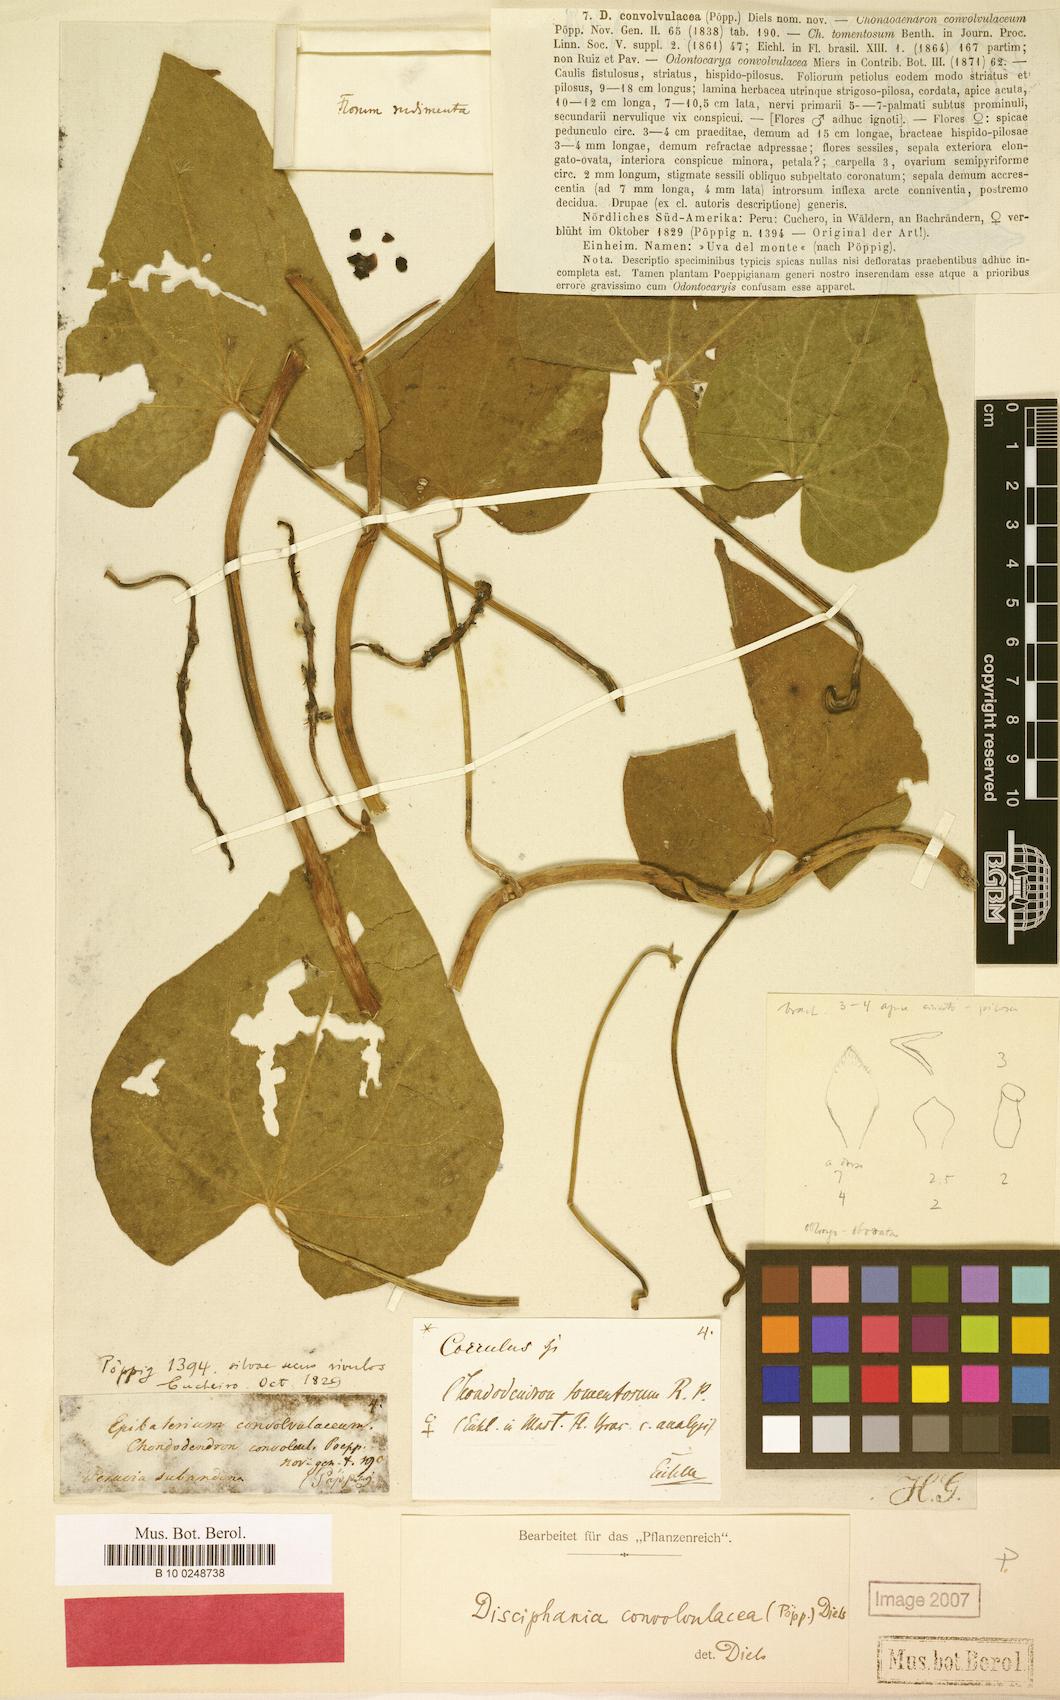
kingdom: Plantae
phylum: Tracheophyta
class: Magnoliopsida
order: Ranunculales
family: Menispermaceae
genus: Disciphania
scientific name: Disciphania convolvulacea
